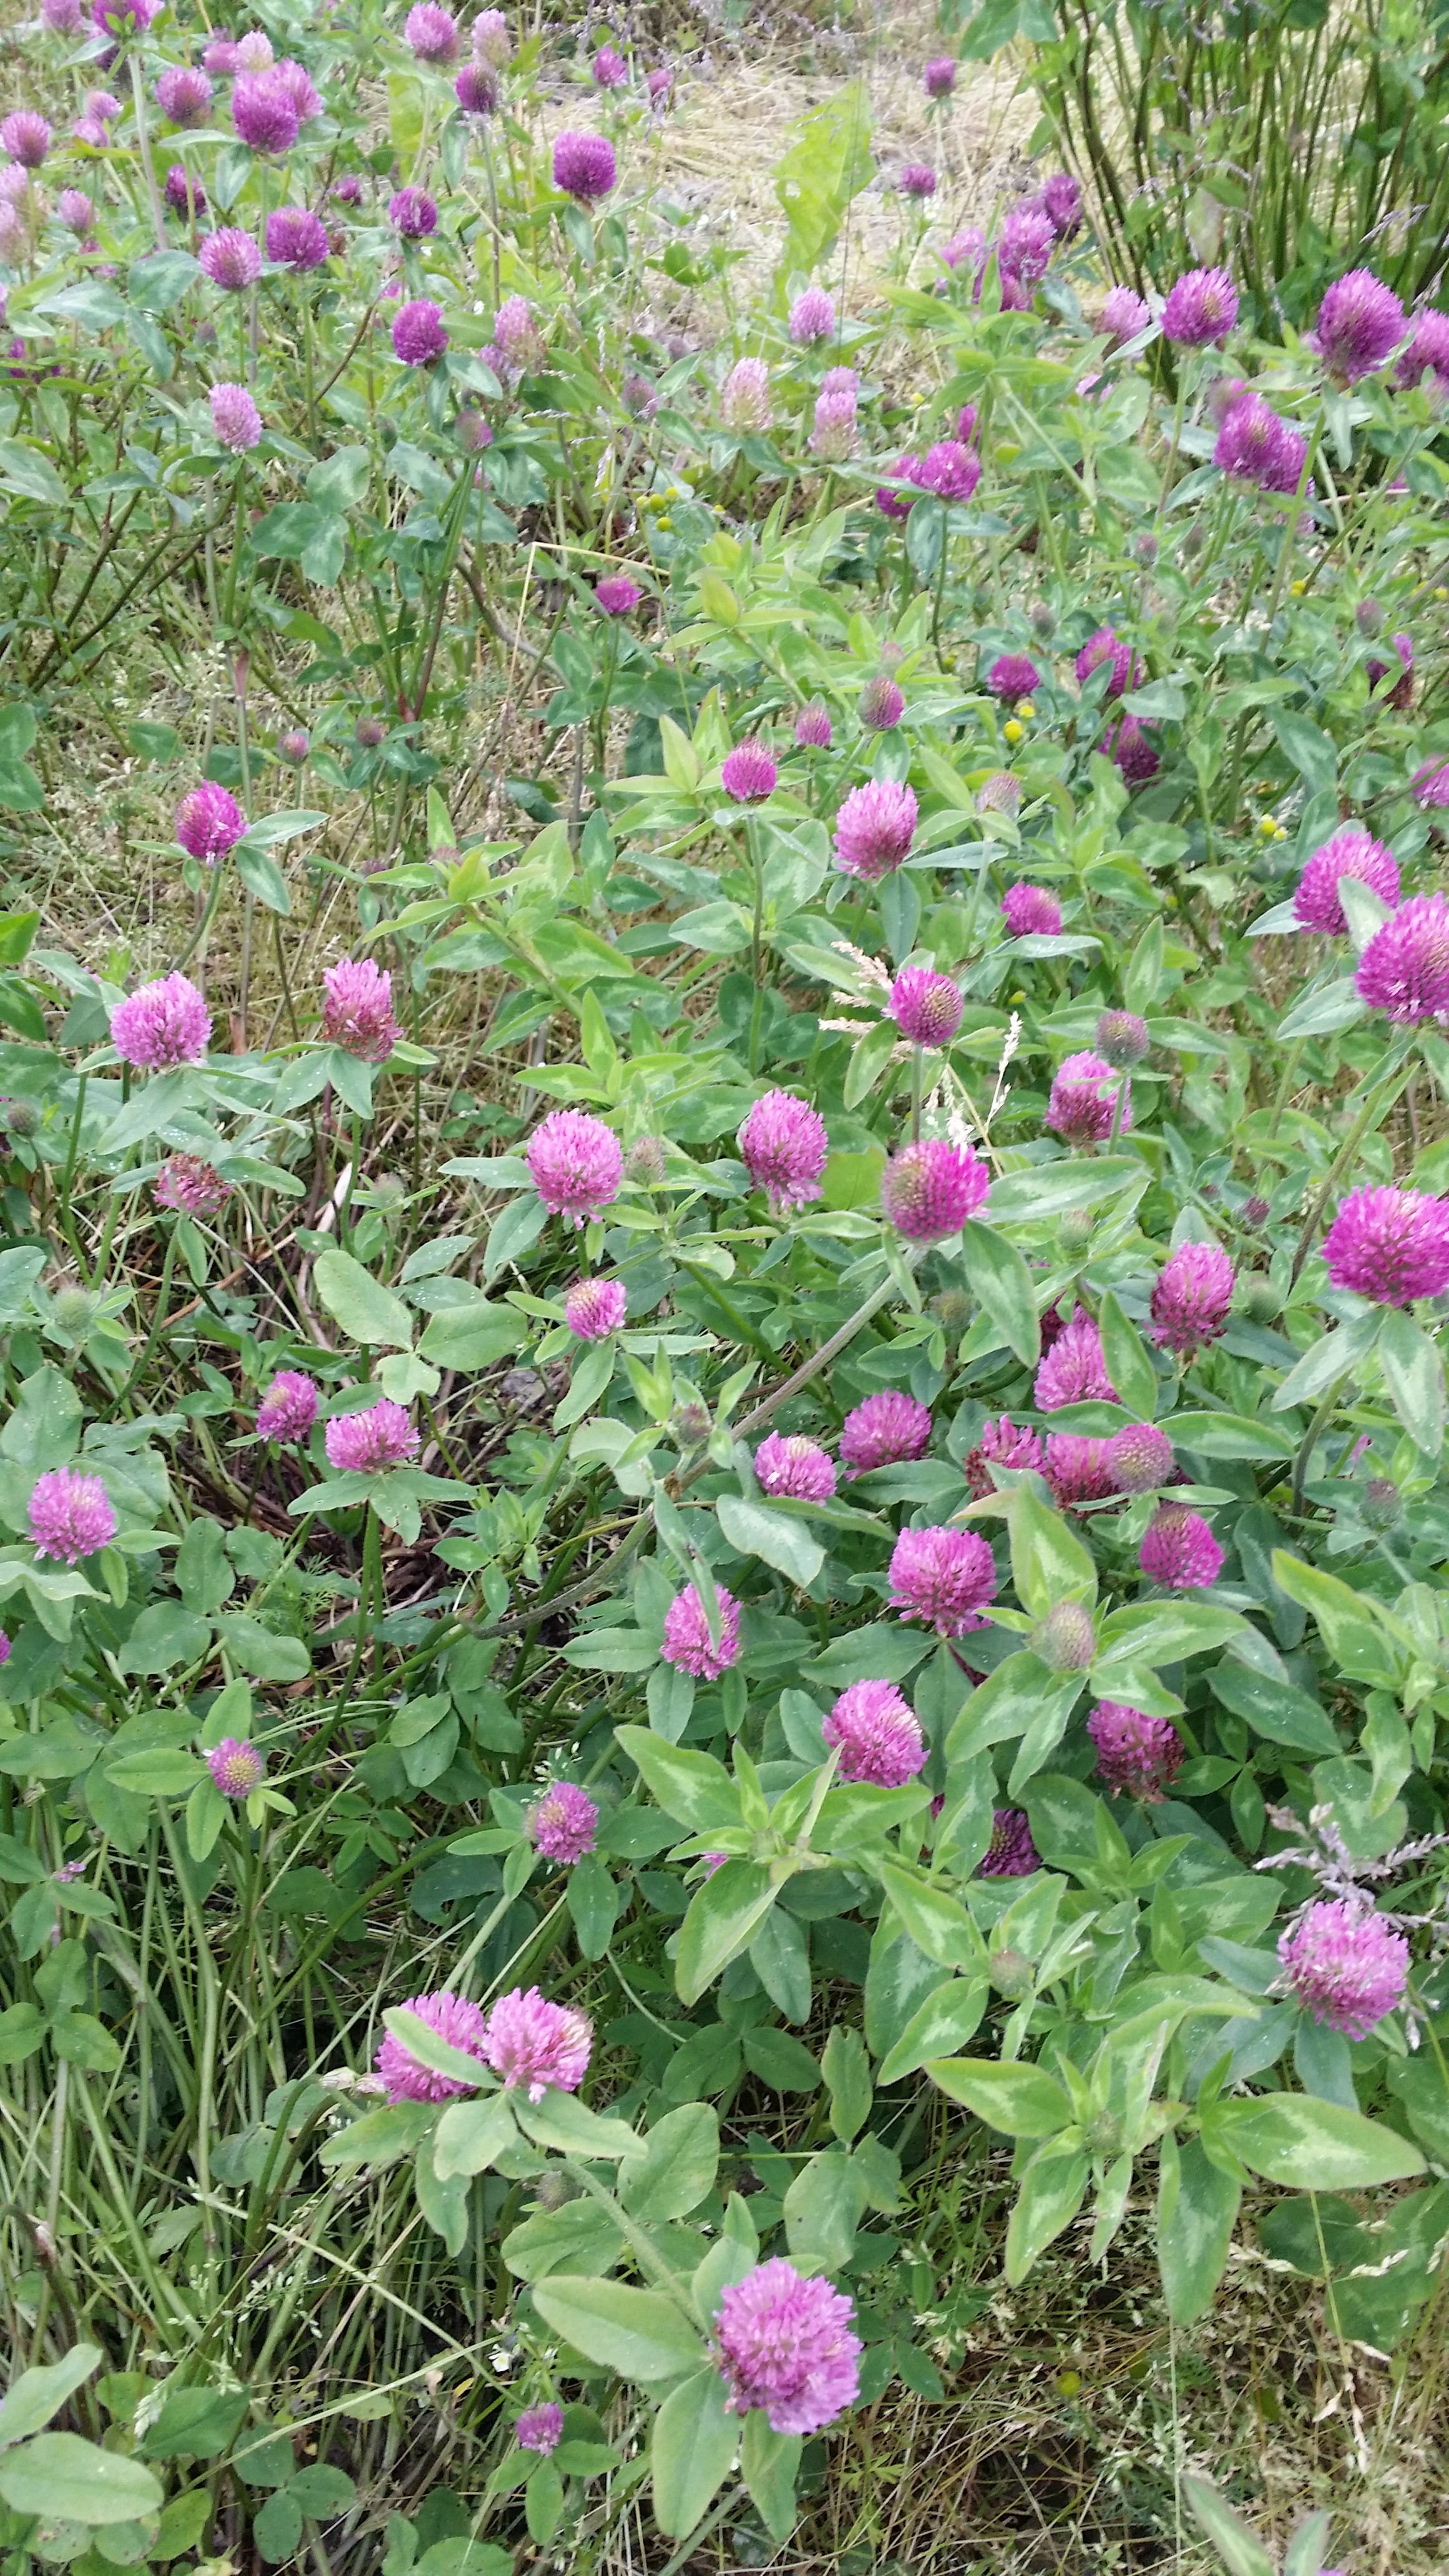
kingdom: Plantae
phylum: Tracheophyta
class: Magnoliopsida
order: Fabales
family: Fabaceae
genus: Trifolium
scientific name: Trifolium pratense
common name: Red clover
